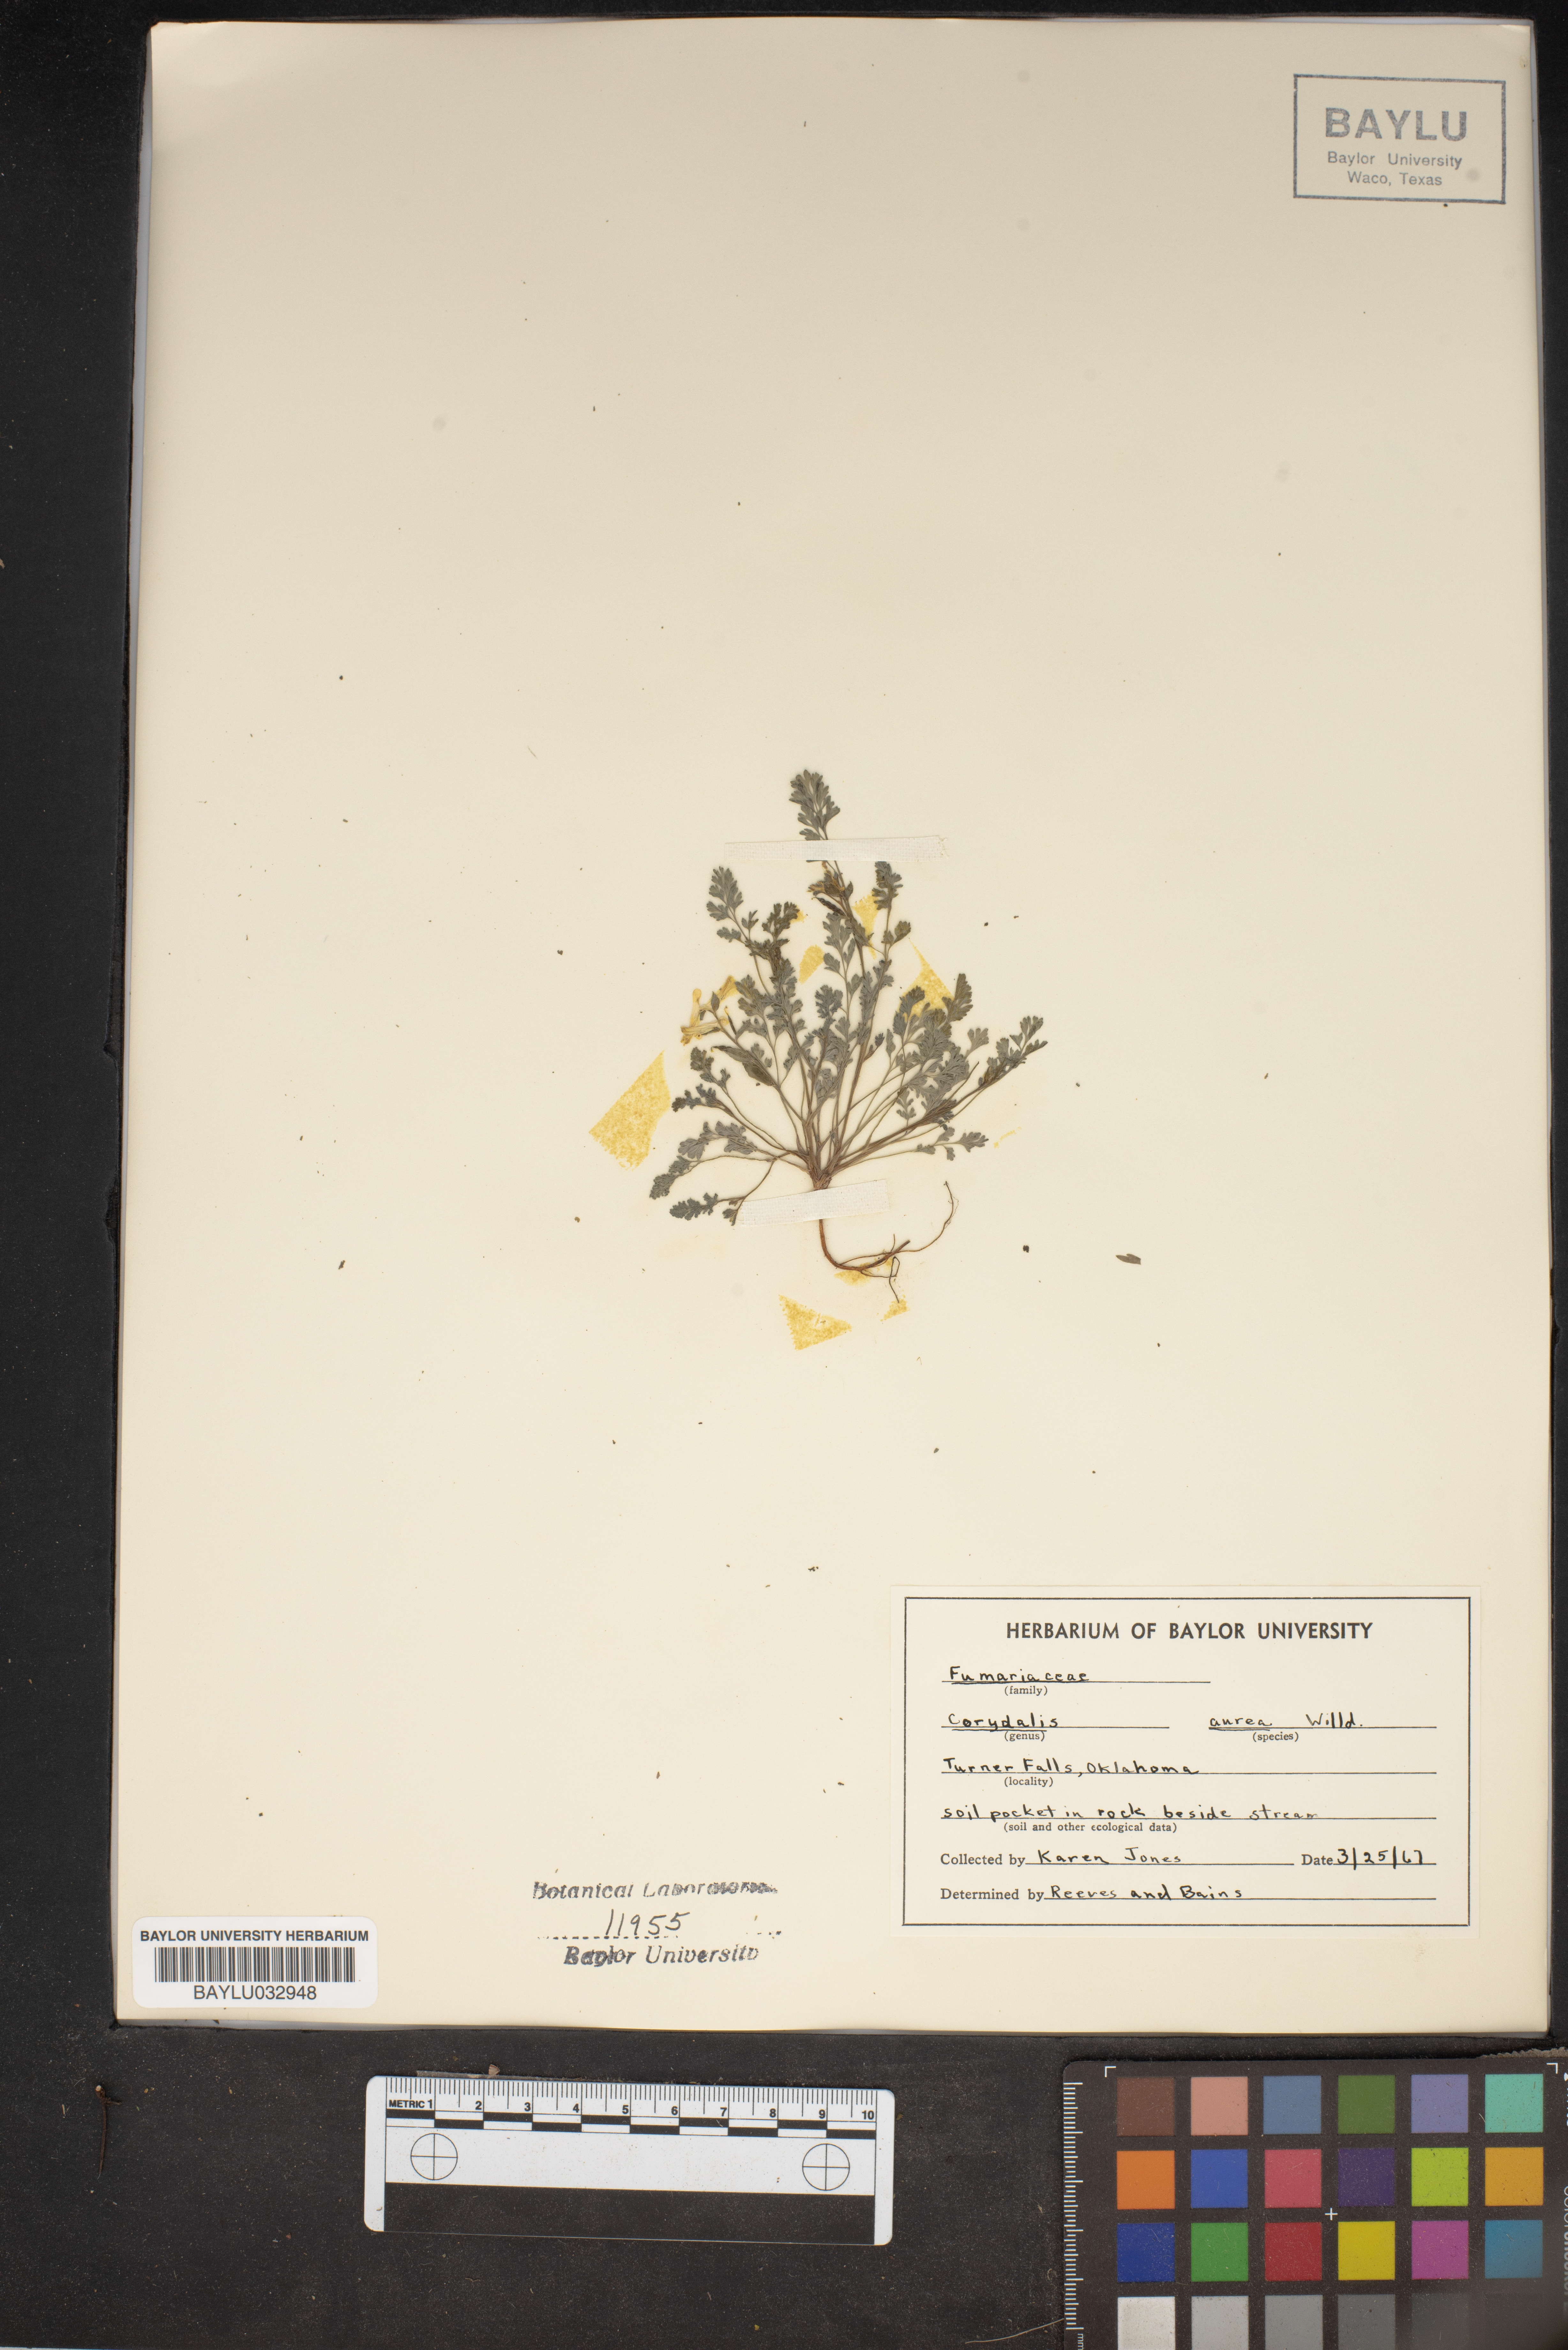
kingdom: Plantae
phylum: Tracheophyta
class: Magnoliopsida
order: Ranunculales
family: Papaveraceae
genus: Corydalis
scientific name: Corydalis aurea
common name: Golden corydalis
